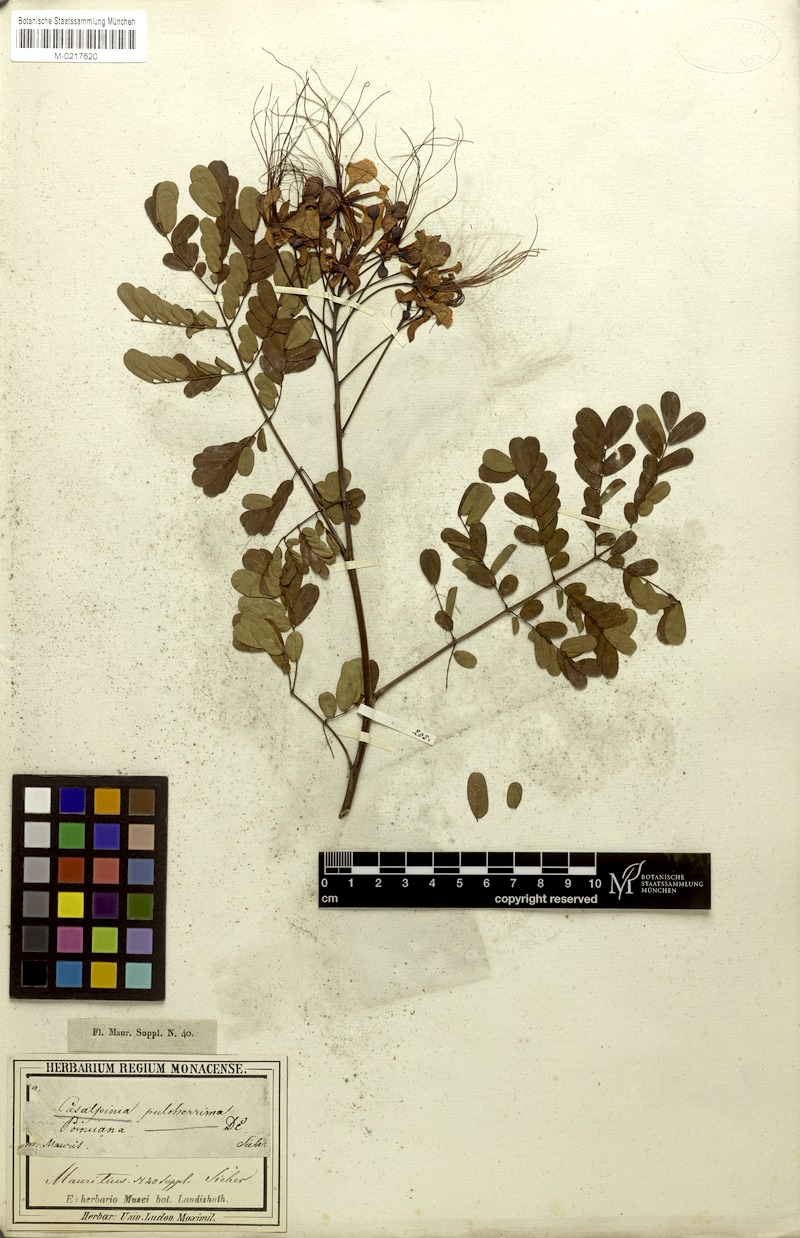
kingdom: Plantae
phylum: Tracheophyta
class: Magnoliopsida
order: Fabales
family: Fabaceae
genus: Caesalpinia
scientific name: Caesalpinia pulcherrima
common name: Pride-of-barbados
